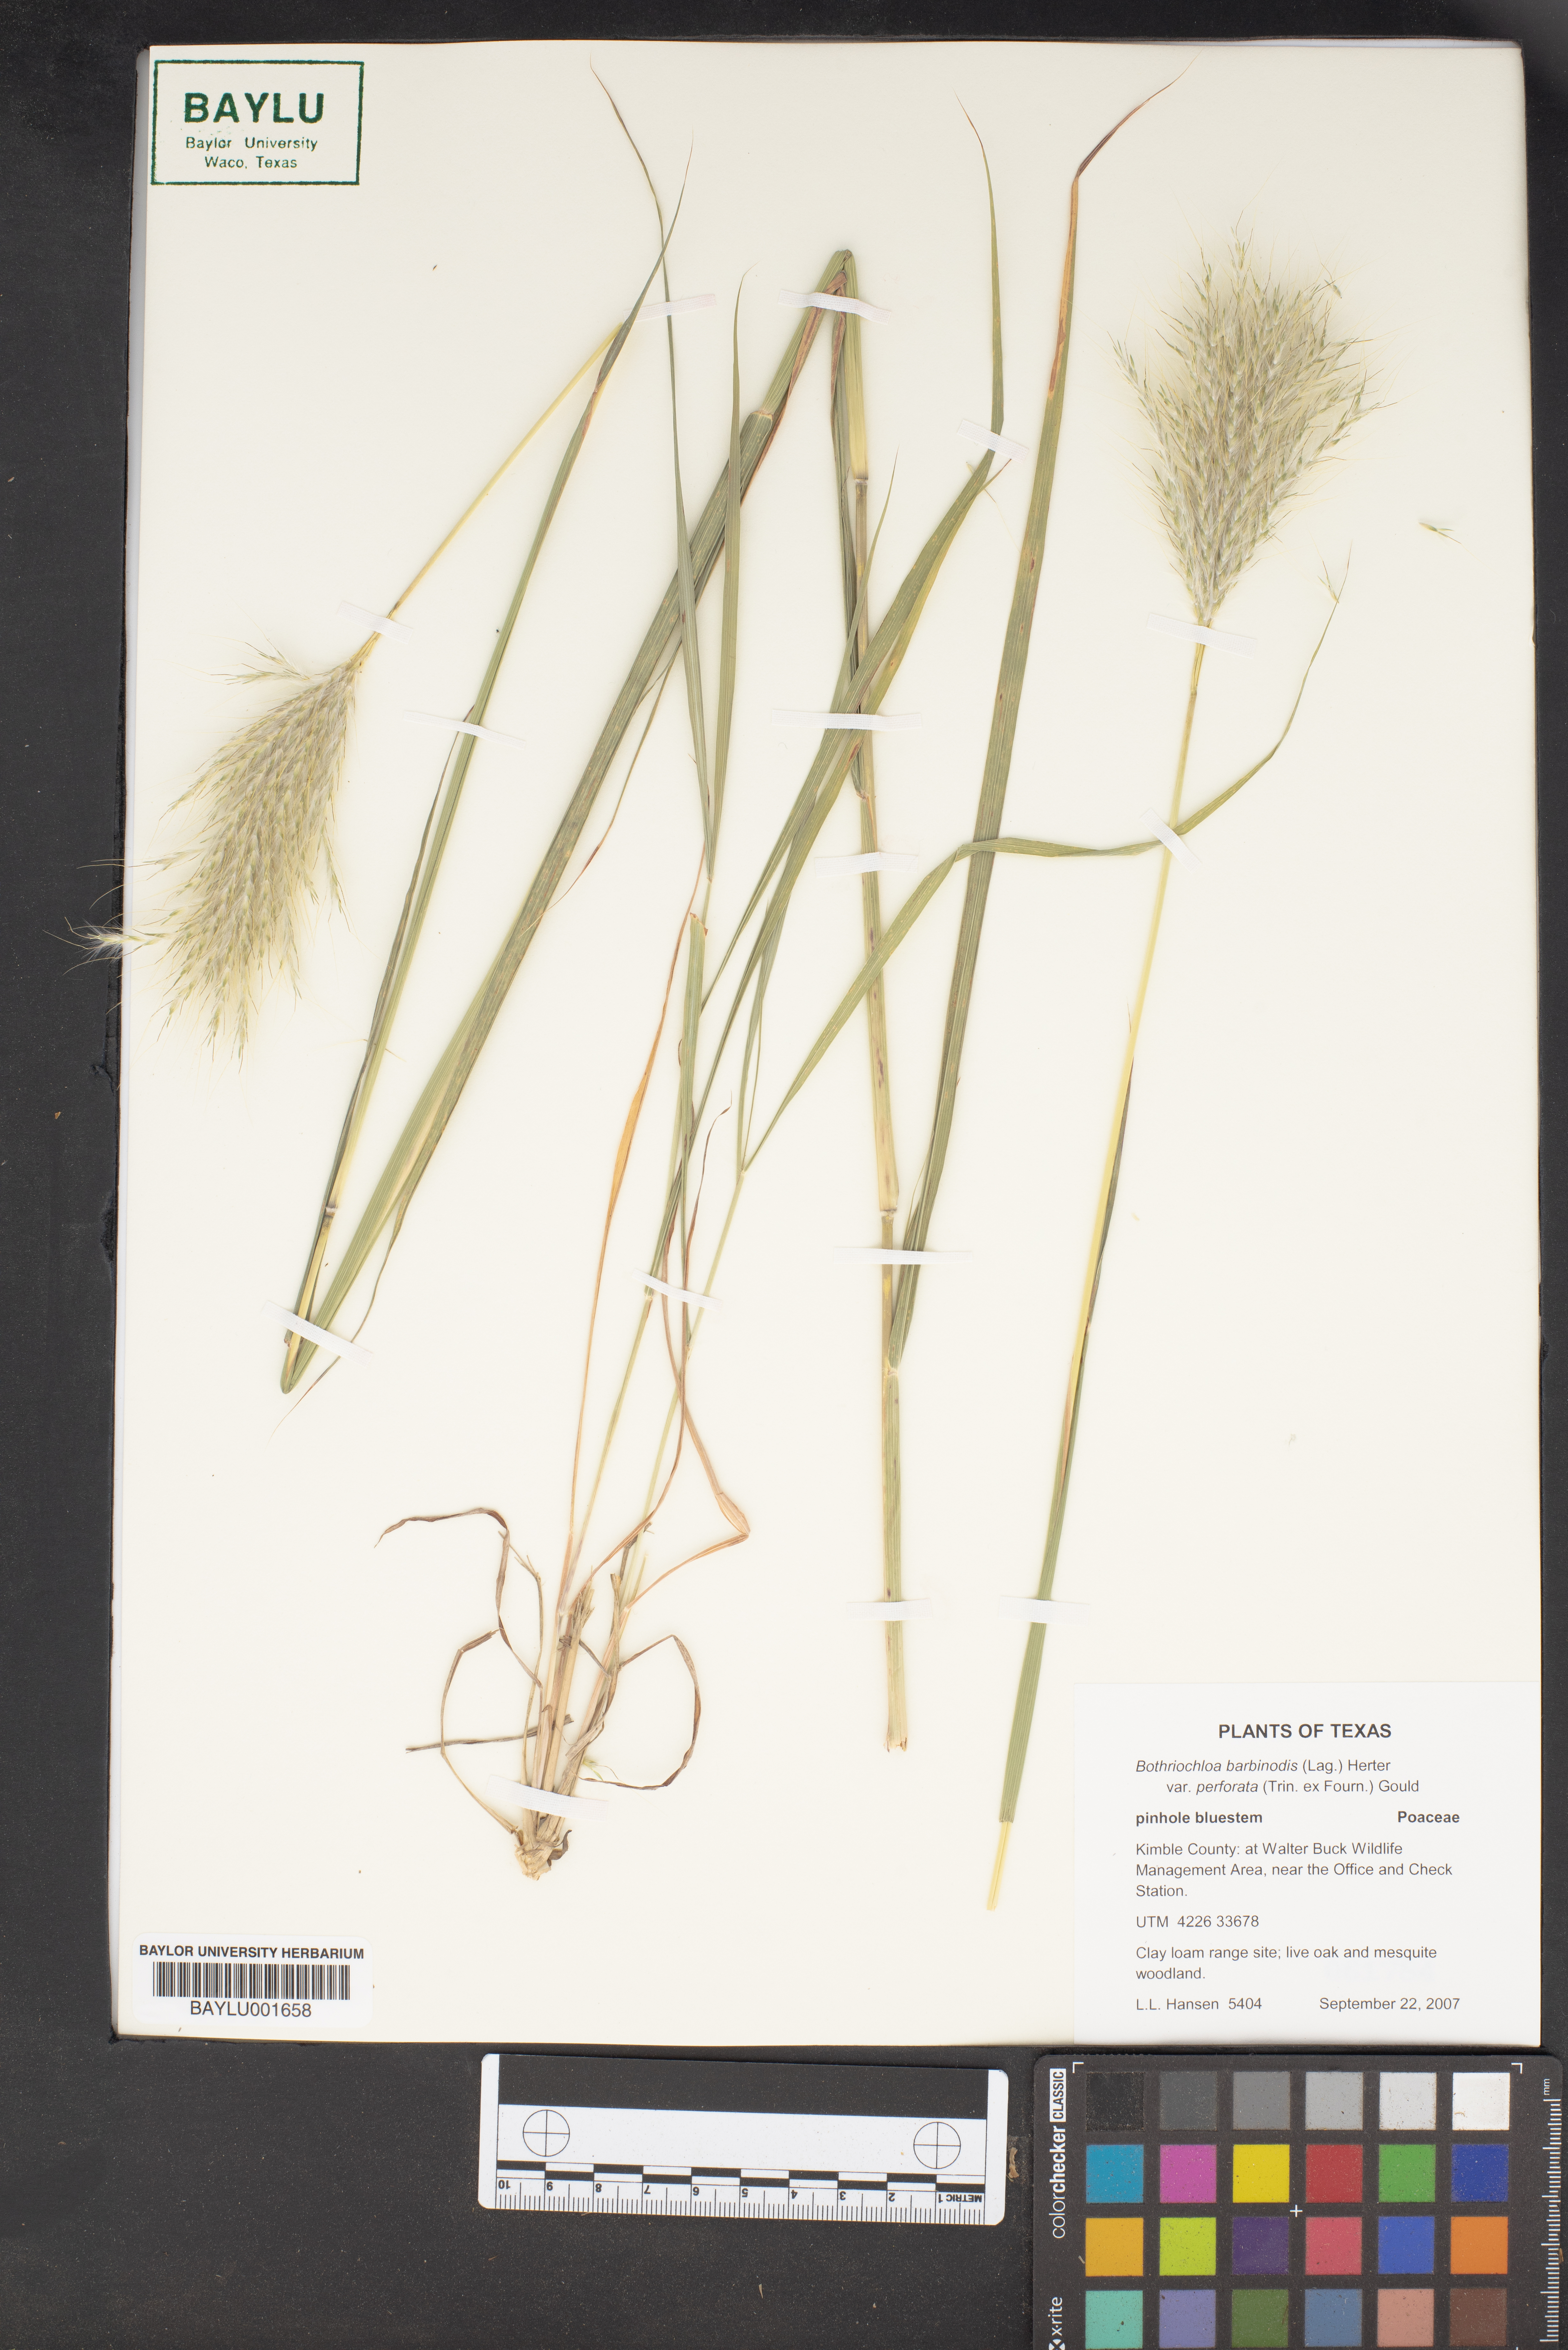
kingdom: Plantae
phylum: Tracheophyta
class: Liliopsida
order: Poales
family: Poaceae
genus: Bothriochloa
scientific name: Bothriochloa barbinodis
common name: Cane bluestem
